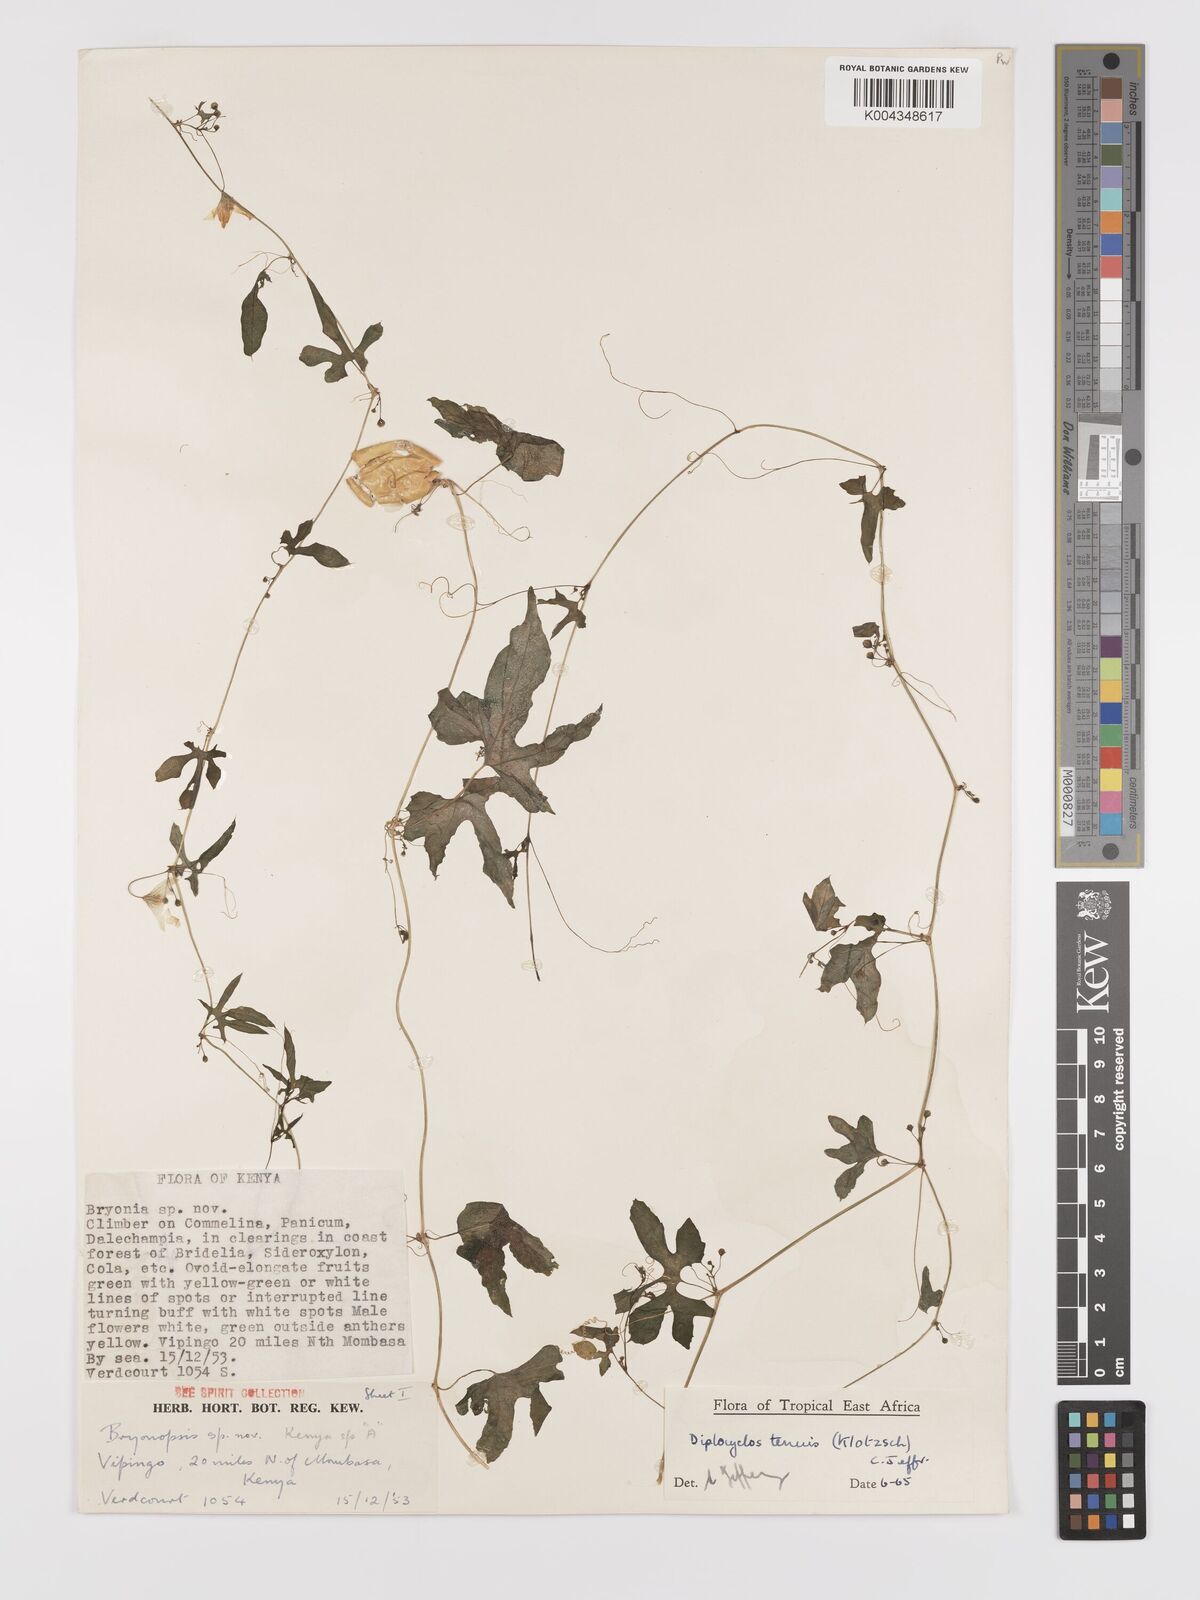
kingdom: Plantae
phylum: Tracheophyta
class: Magnoliopsida
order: Cucurbitales
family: Cucurbitaceae
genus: Diplocyclos
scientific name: Diplocyclos tenuis
